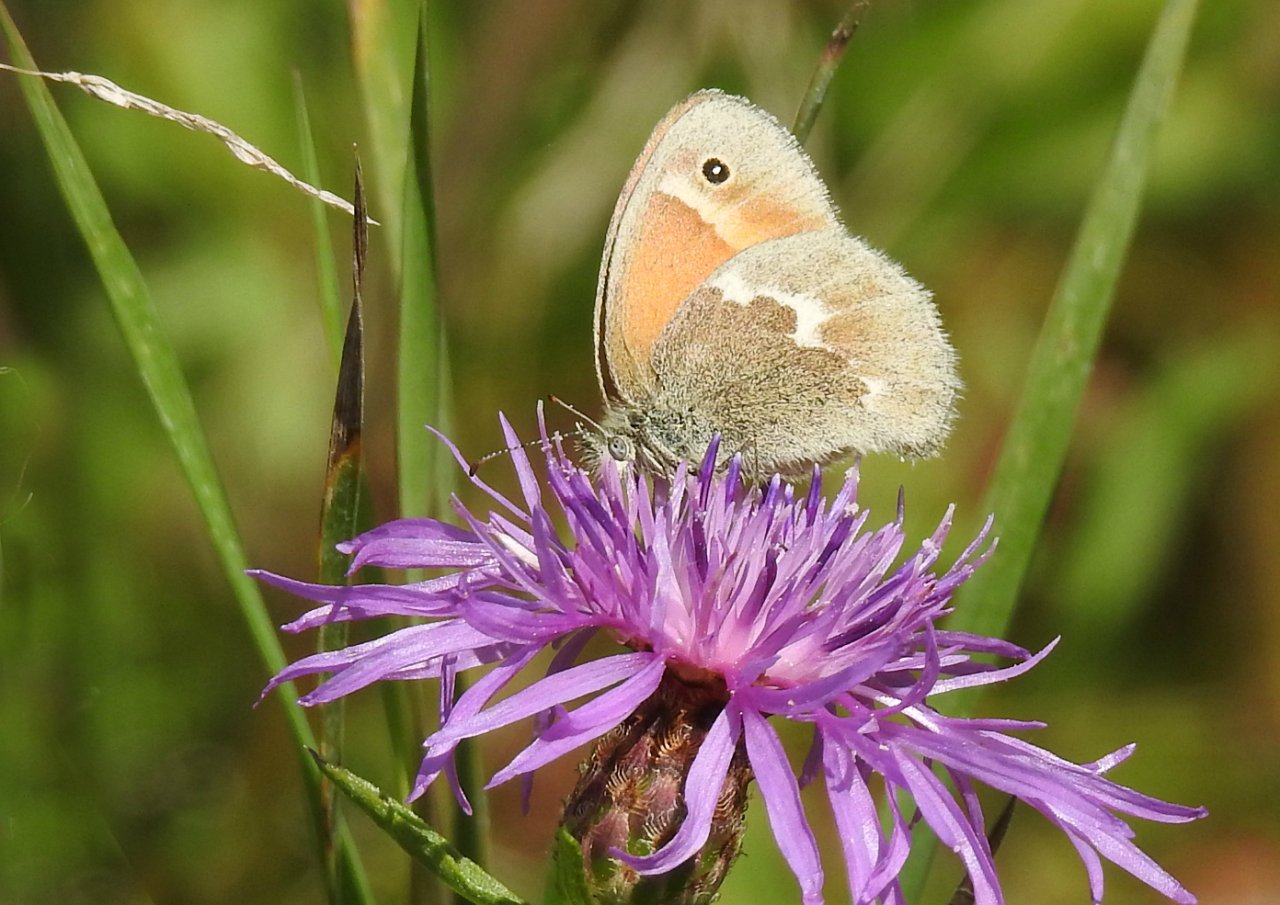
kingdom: Animalia
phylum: Arthropoda
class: Insecta
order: Lepidoptera
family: Nymphalidae
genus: Coenonympha
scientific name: Coenonympha tullia
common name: Large Heath
